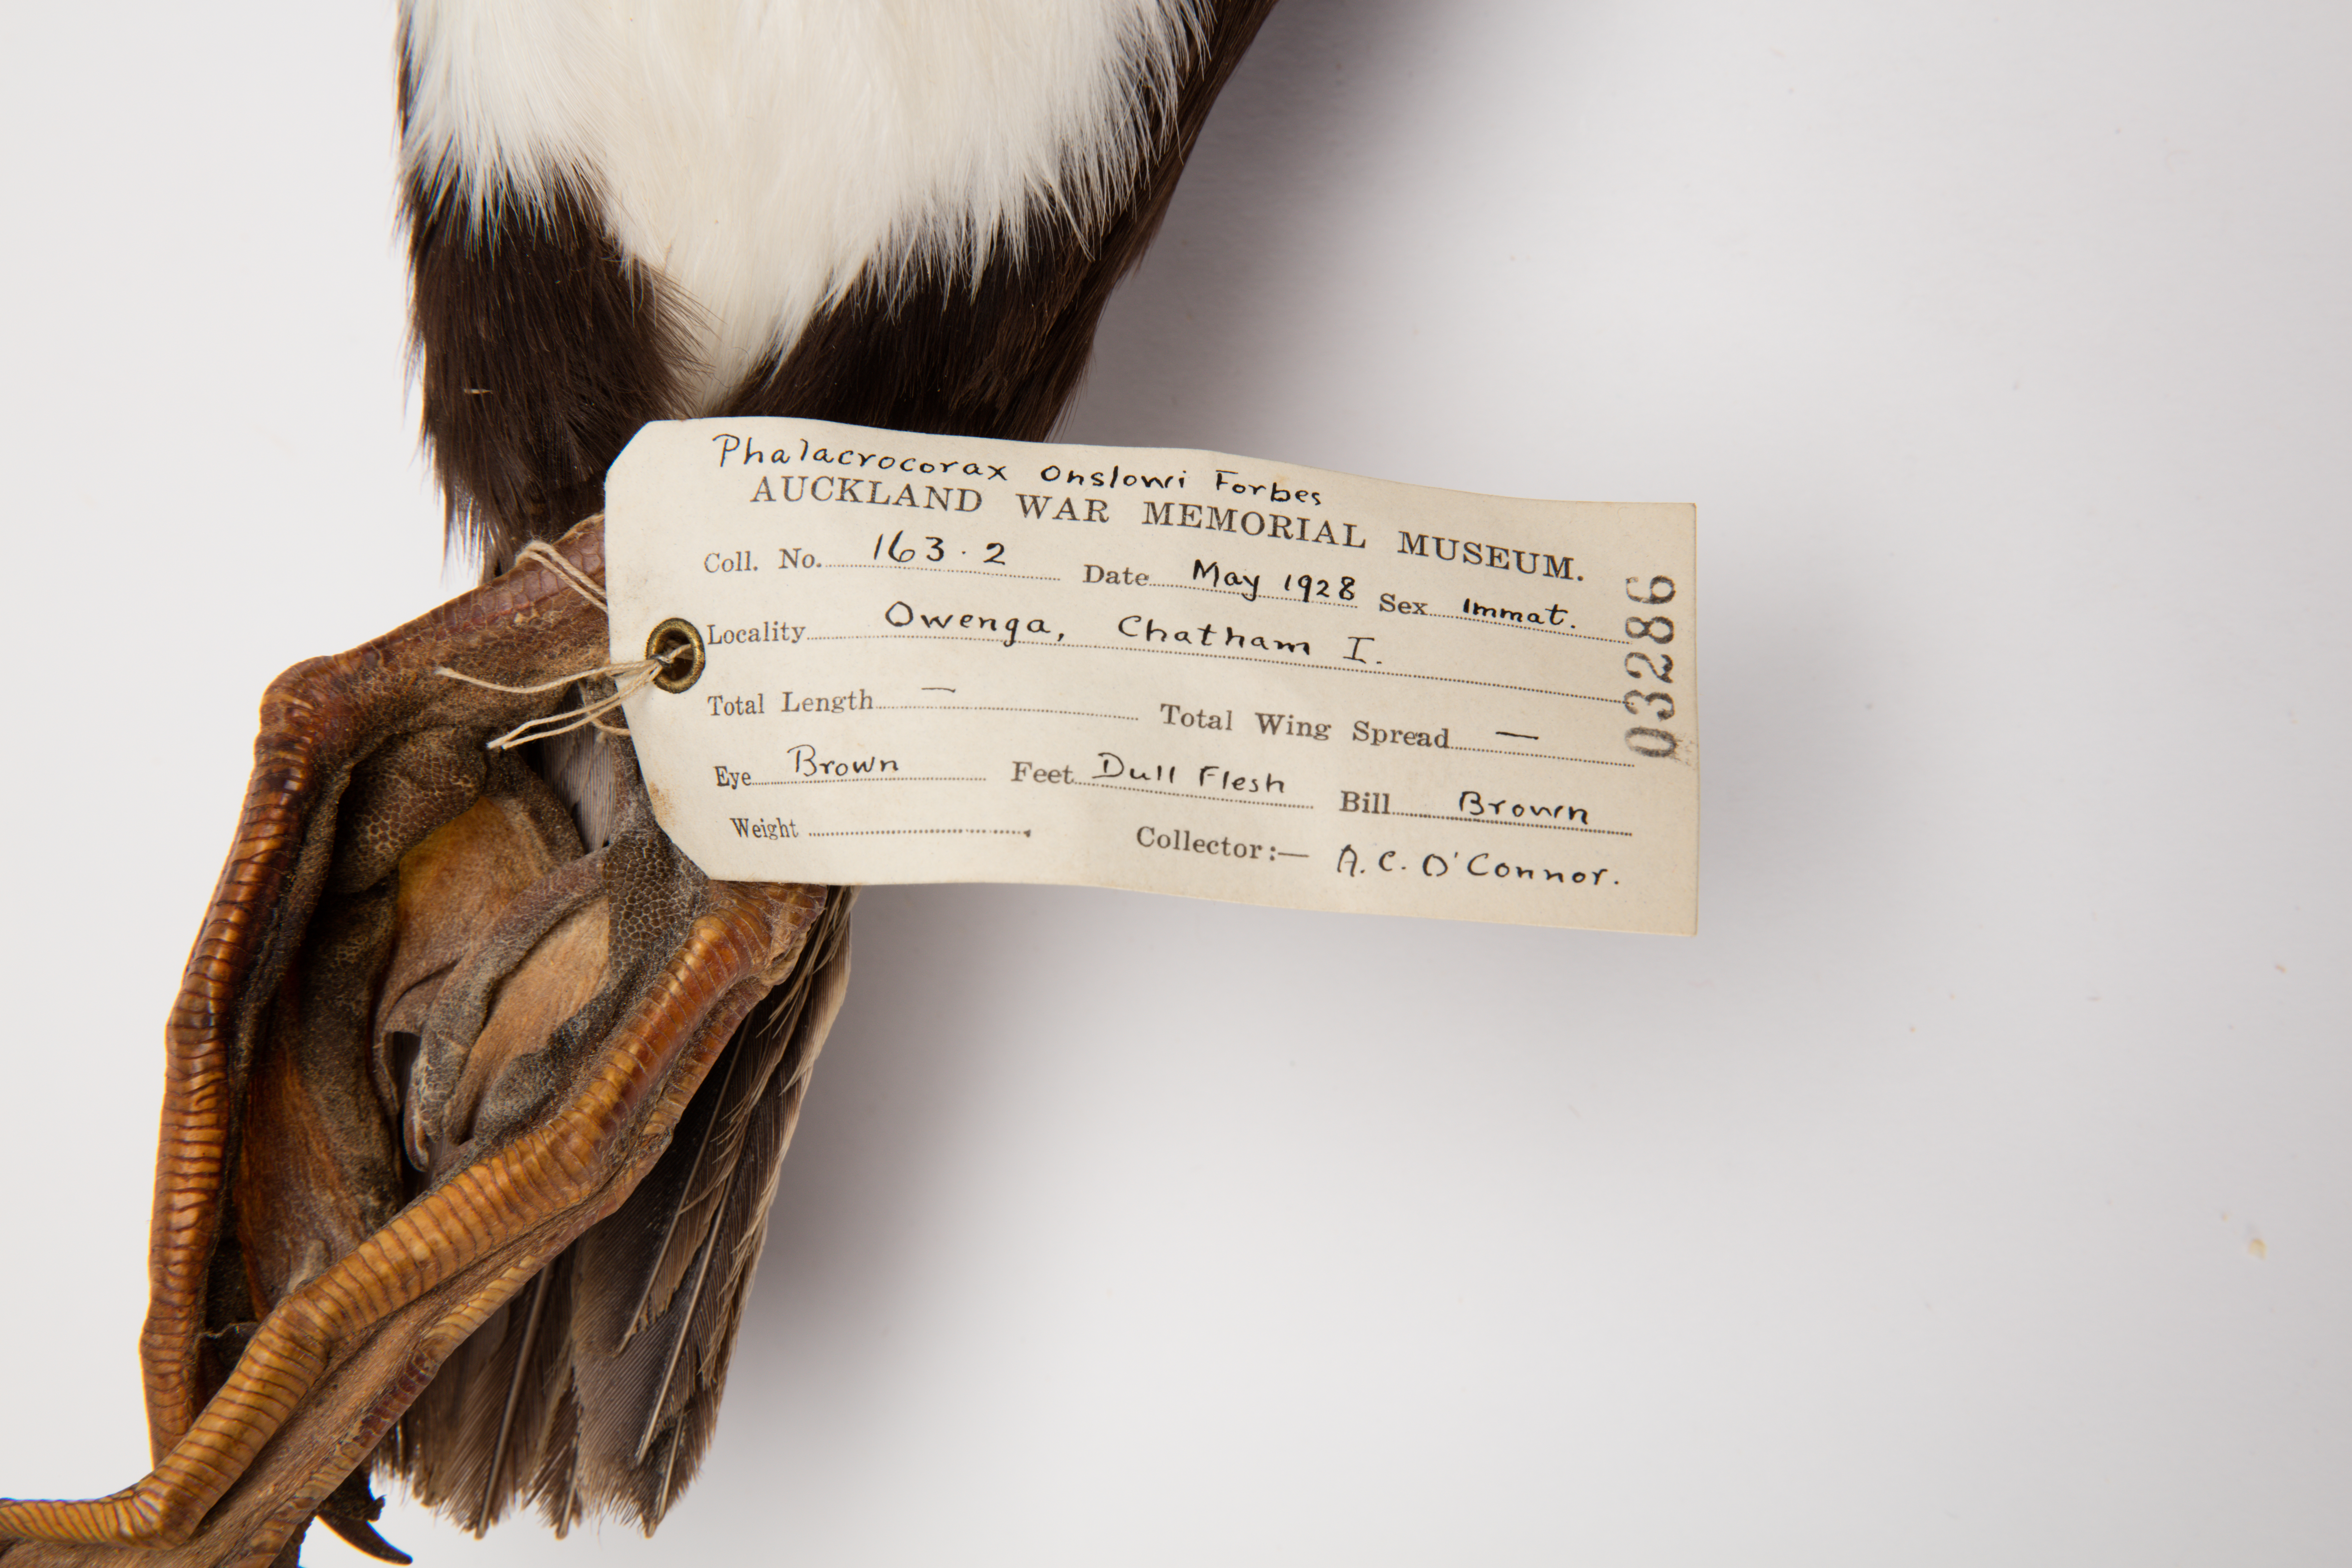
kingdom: Animalia
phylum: Chordata
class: Aves
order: Suliformes
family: Phalacrocoracidae
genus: Leucocarbo
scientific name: Leucocarbo onslowi
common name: Chatham shag
